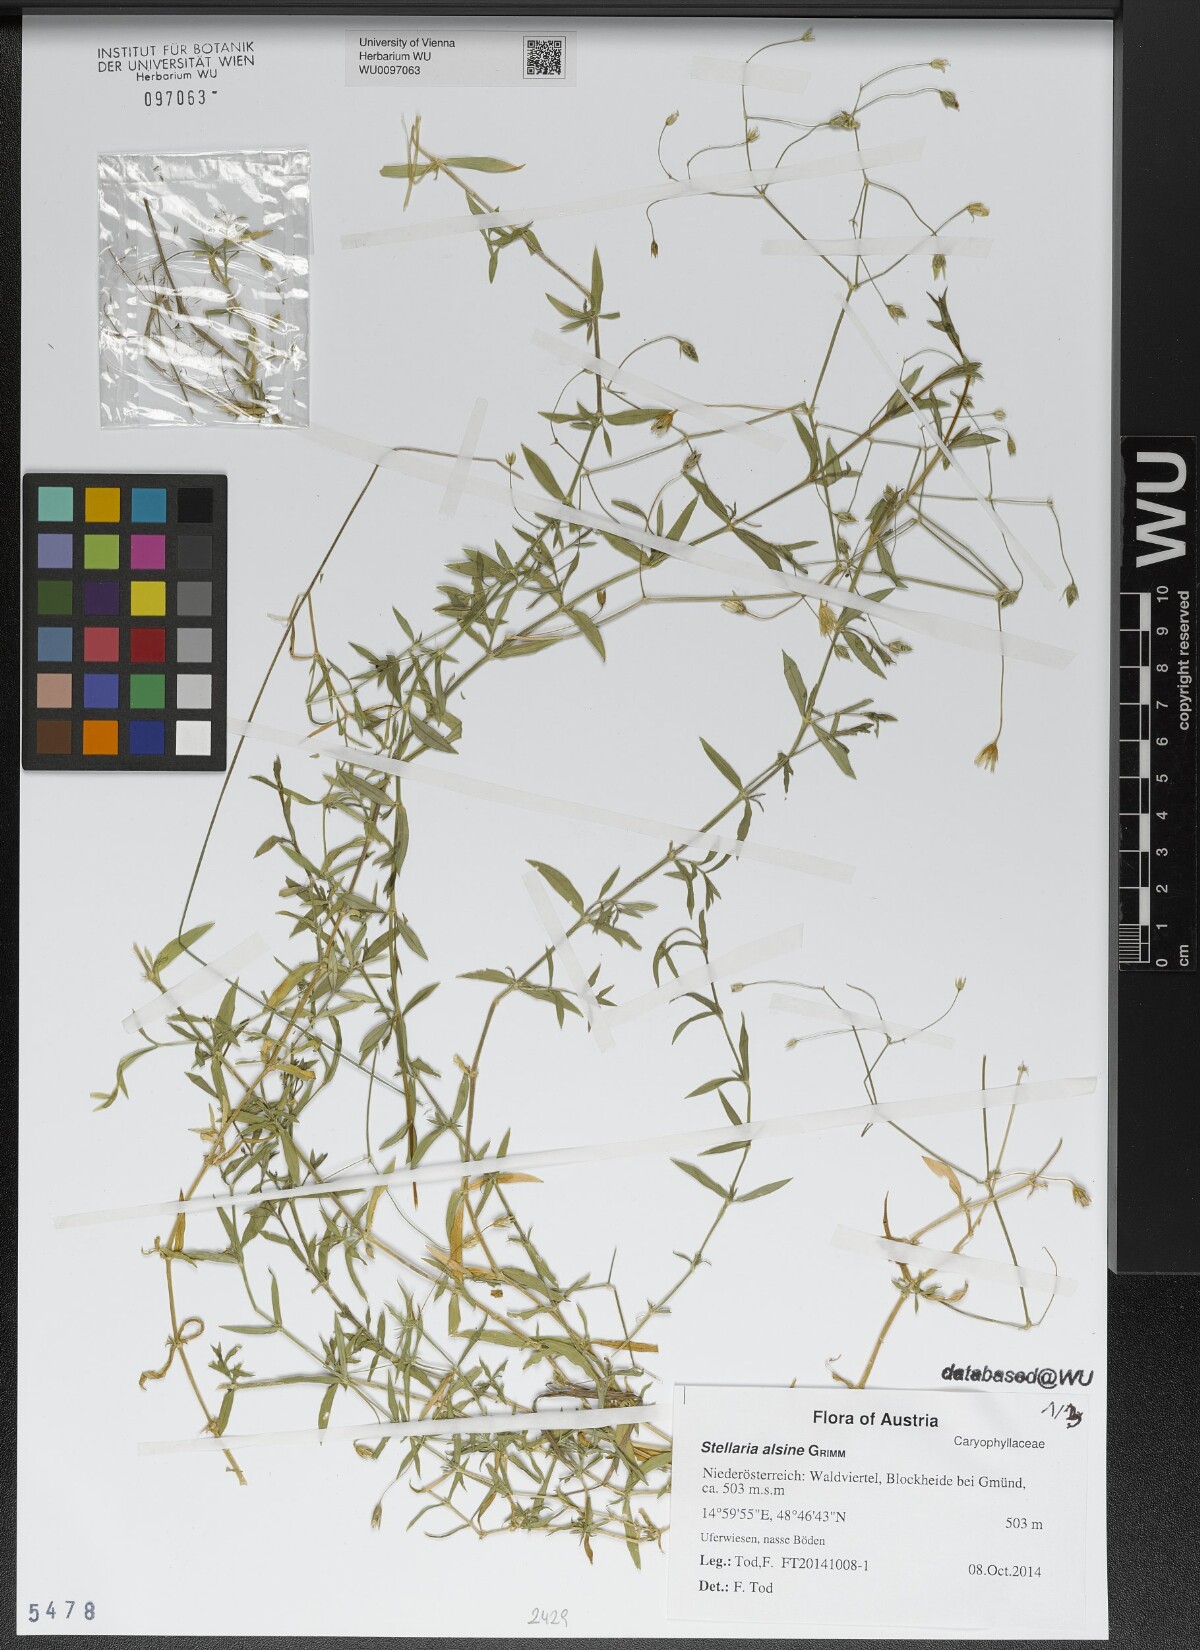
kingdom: Plantae
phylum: Tracheophyta
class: Magnoliopsida
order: Caryophyllales
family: Caryophyllaceae
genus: Stellaria
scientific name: Stellaria alsine
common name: Bog stitchwort
